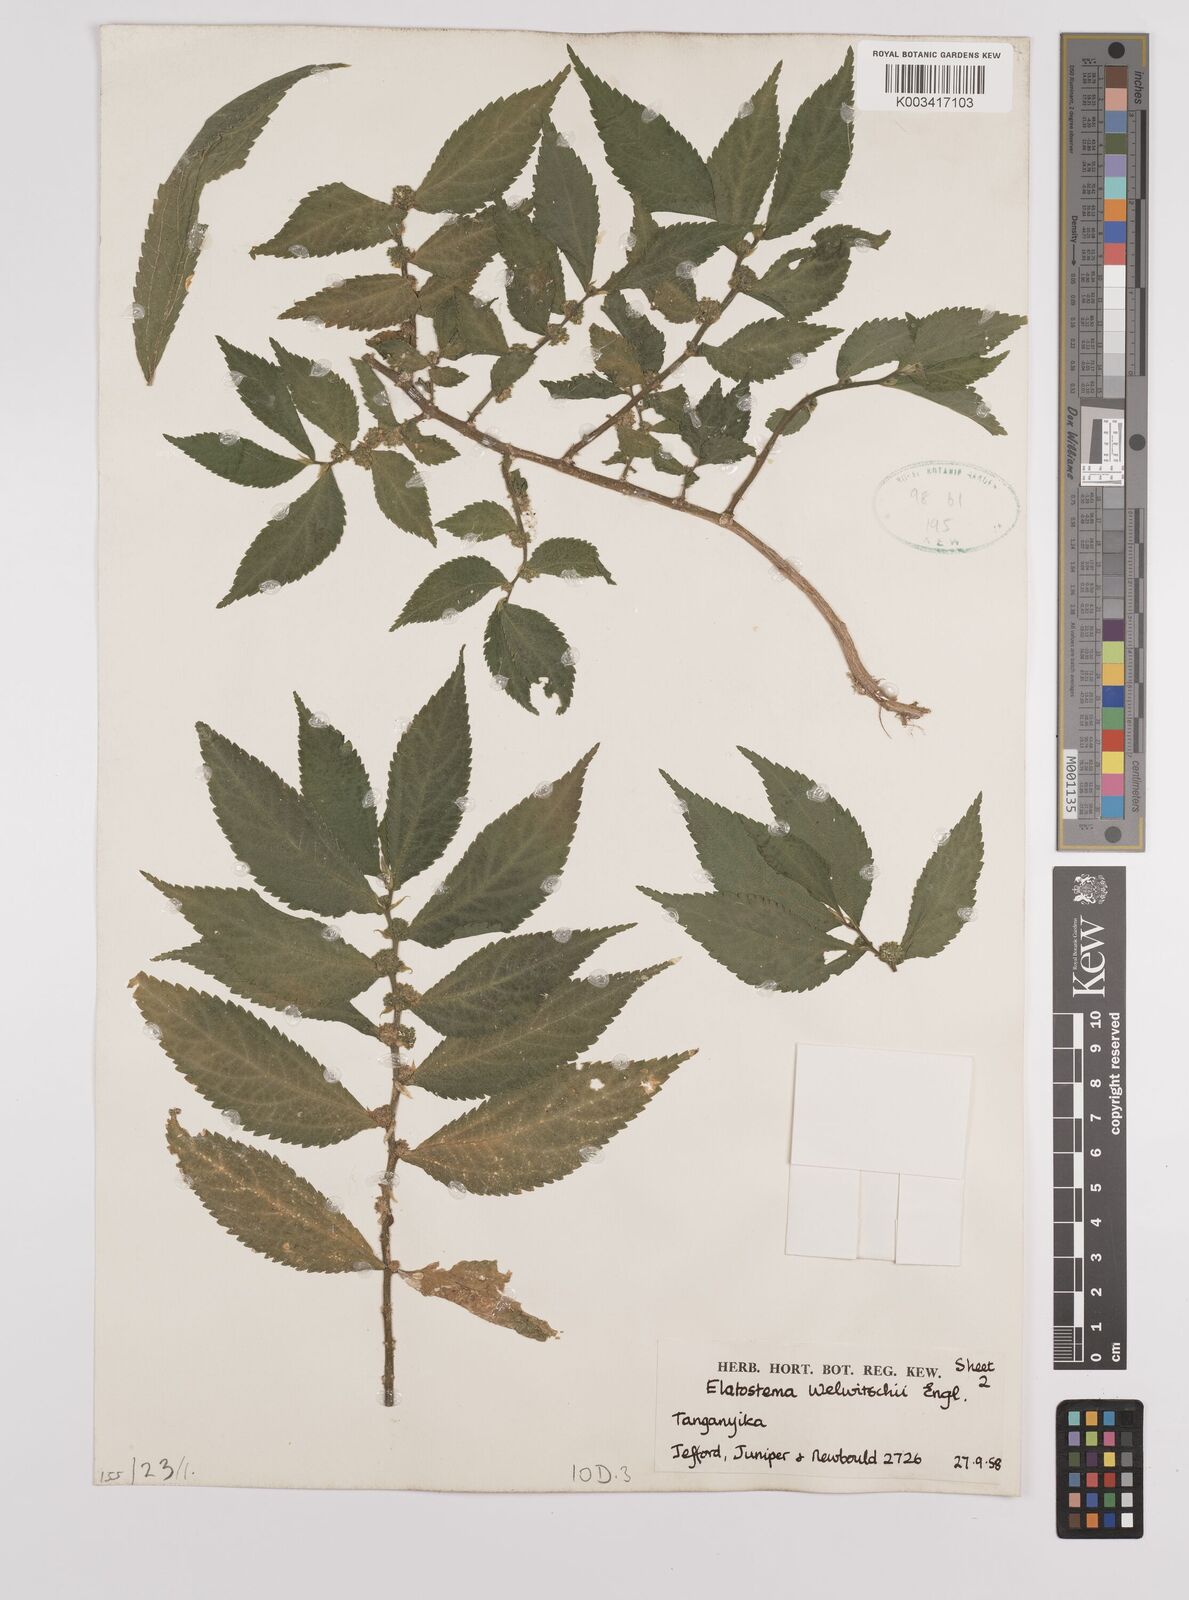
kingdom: Plantae
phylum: Tracheophyta
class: Magnoliopsida
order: Rosales
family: Urticaceae
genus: Elatostema
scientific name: Elatostema welwitschii
